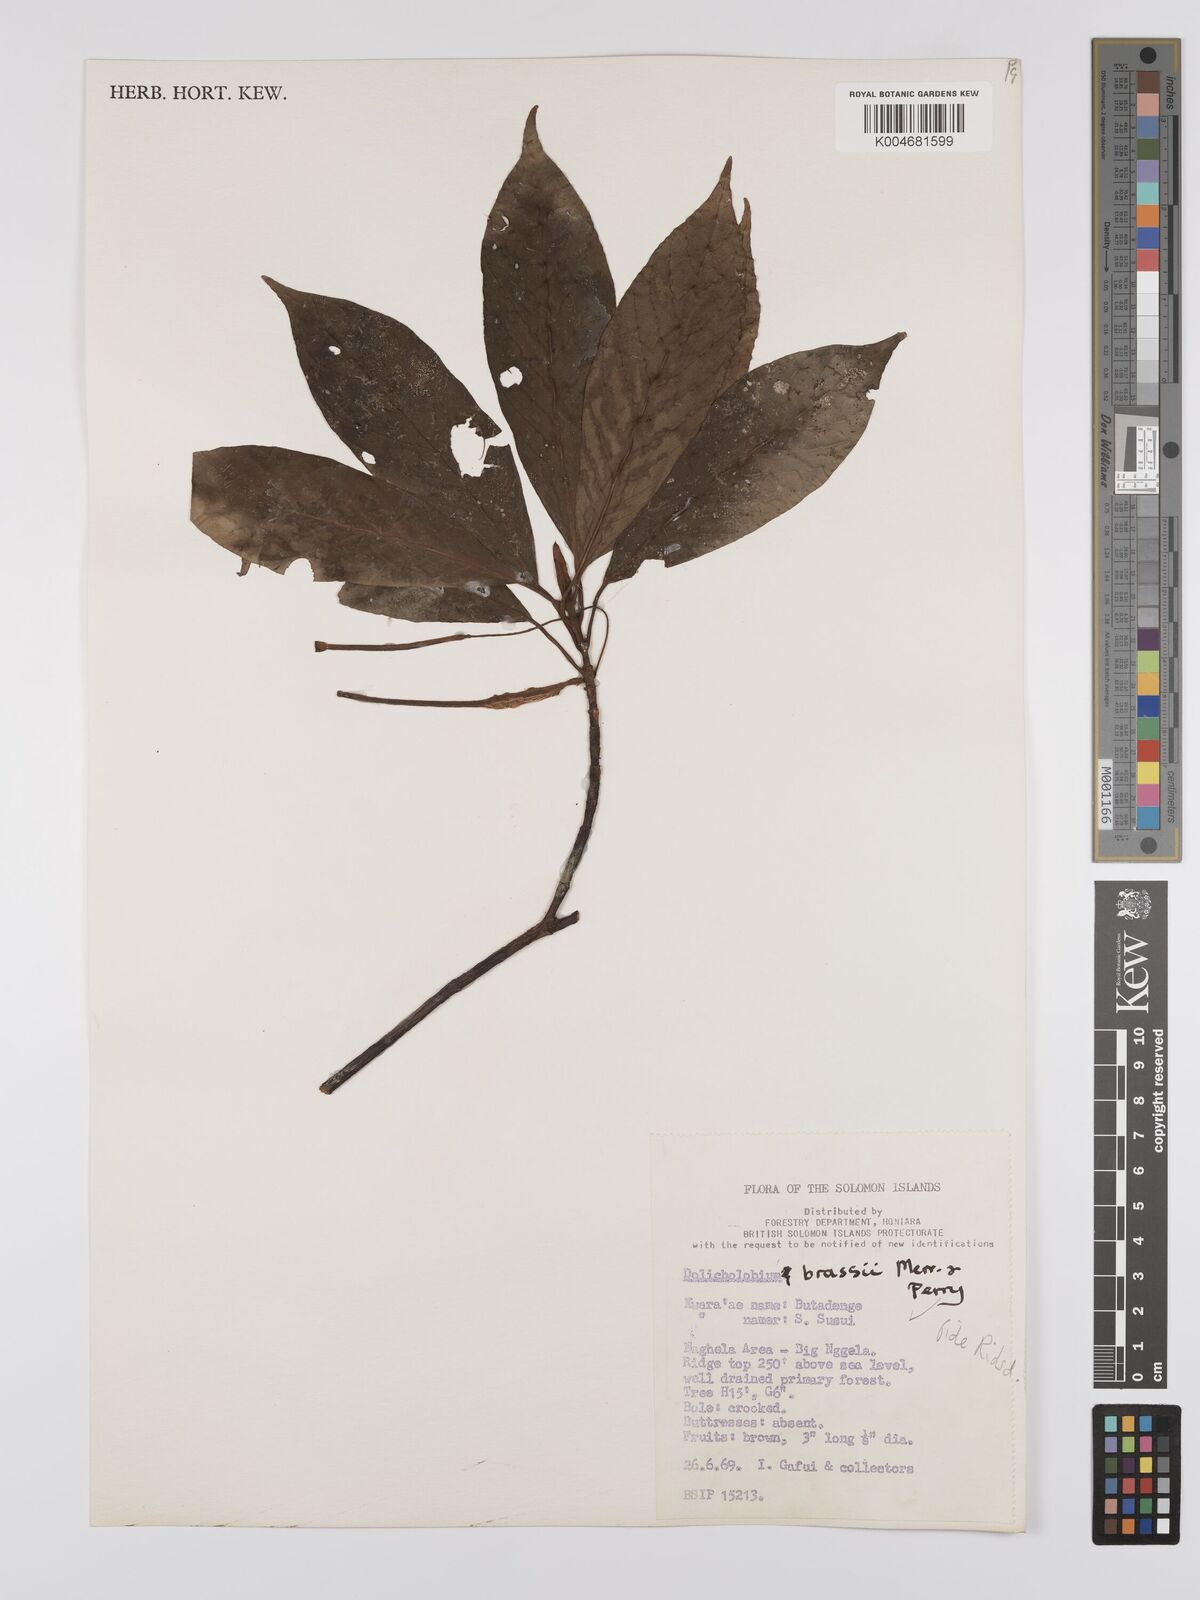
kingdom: Plantae
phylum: Tracheophyta
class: Magnoliopsida
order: Gentianales
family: Rubiaceae
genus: Dolicholobium
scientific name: Dolicholobium brassii
